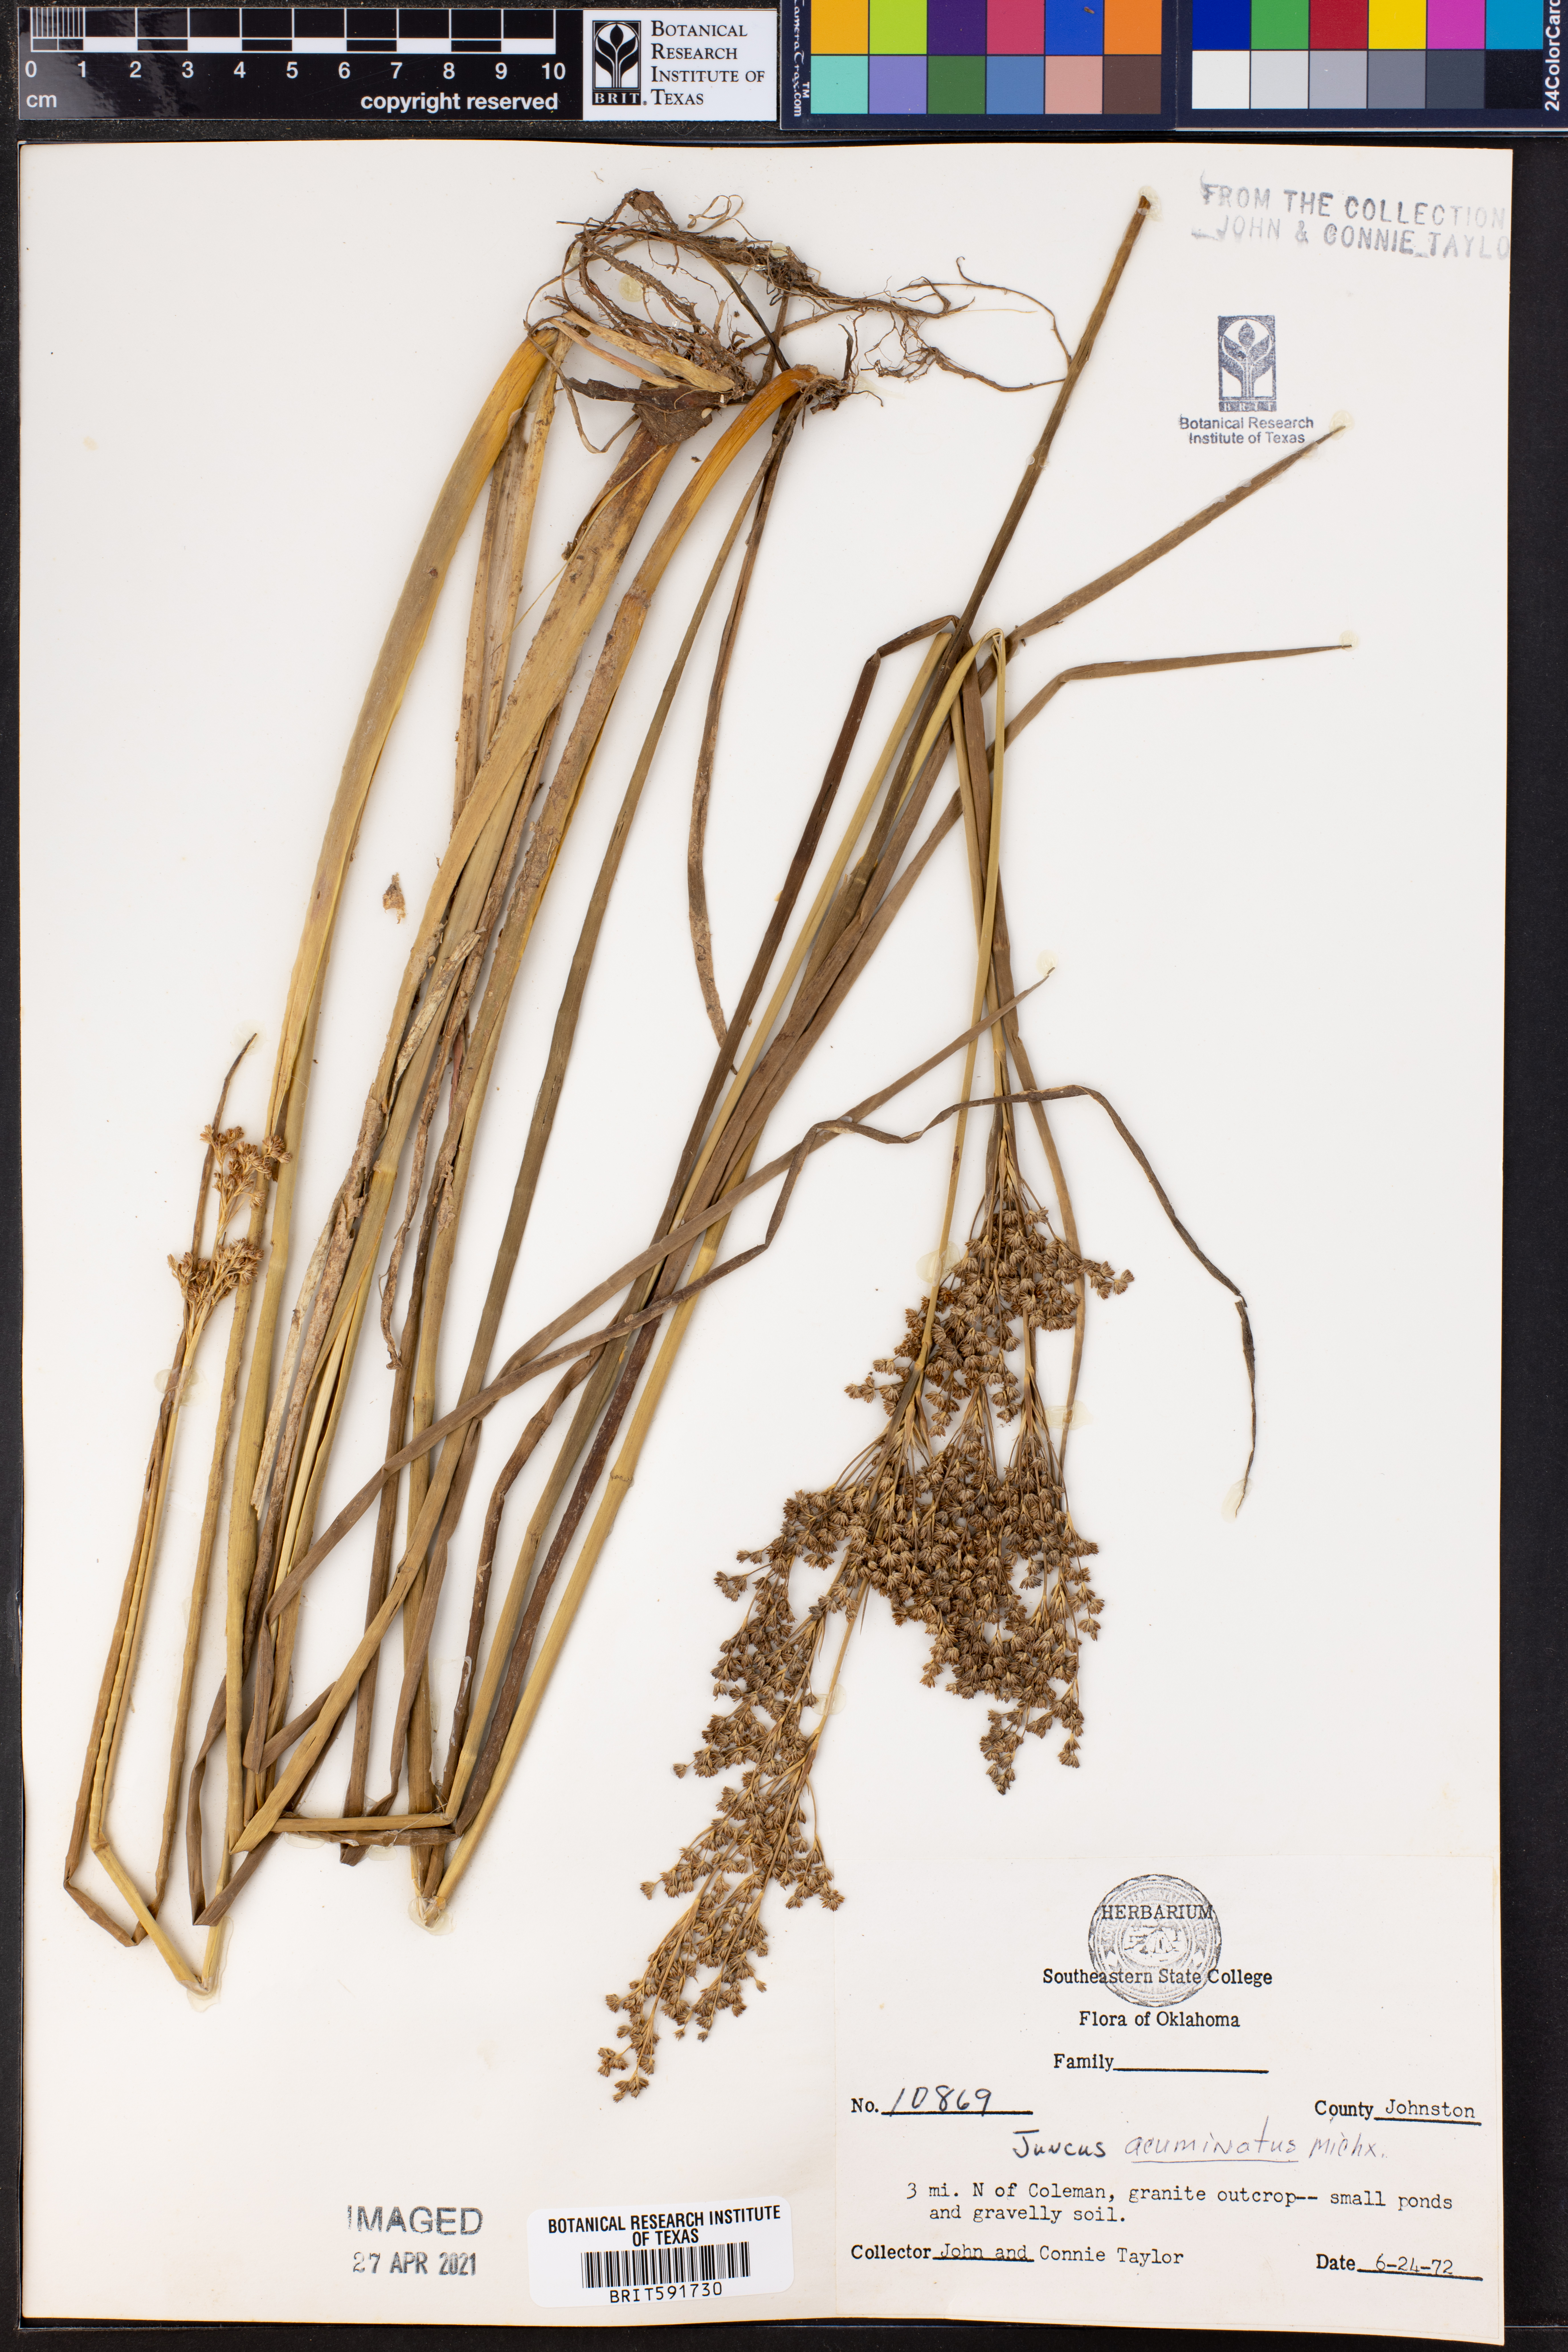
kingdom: Plantae
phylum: Tracheophyta
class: Liliopsida
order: Poales
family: Juncaceae
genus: Juncus
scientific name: Juncus acuminatus
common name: Knotty-leaved rush
